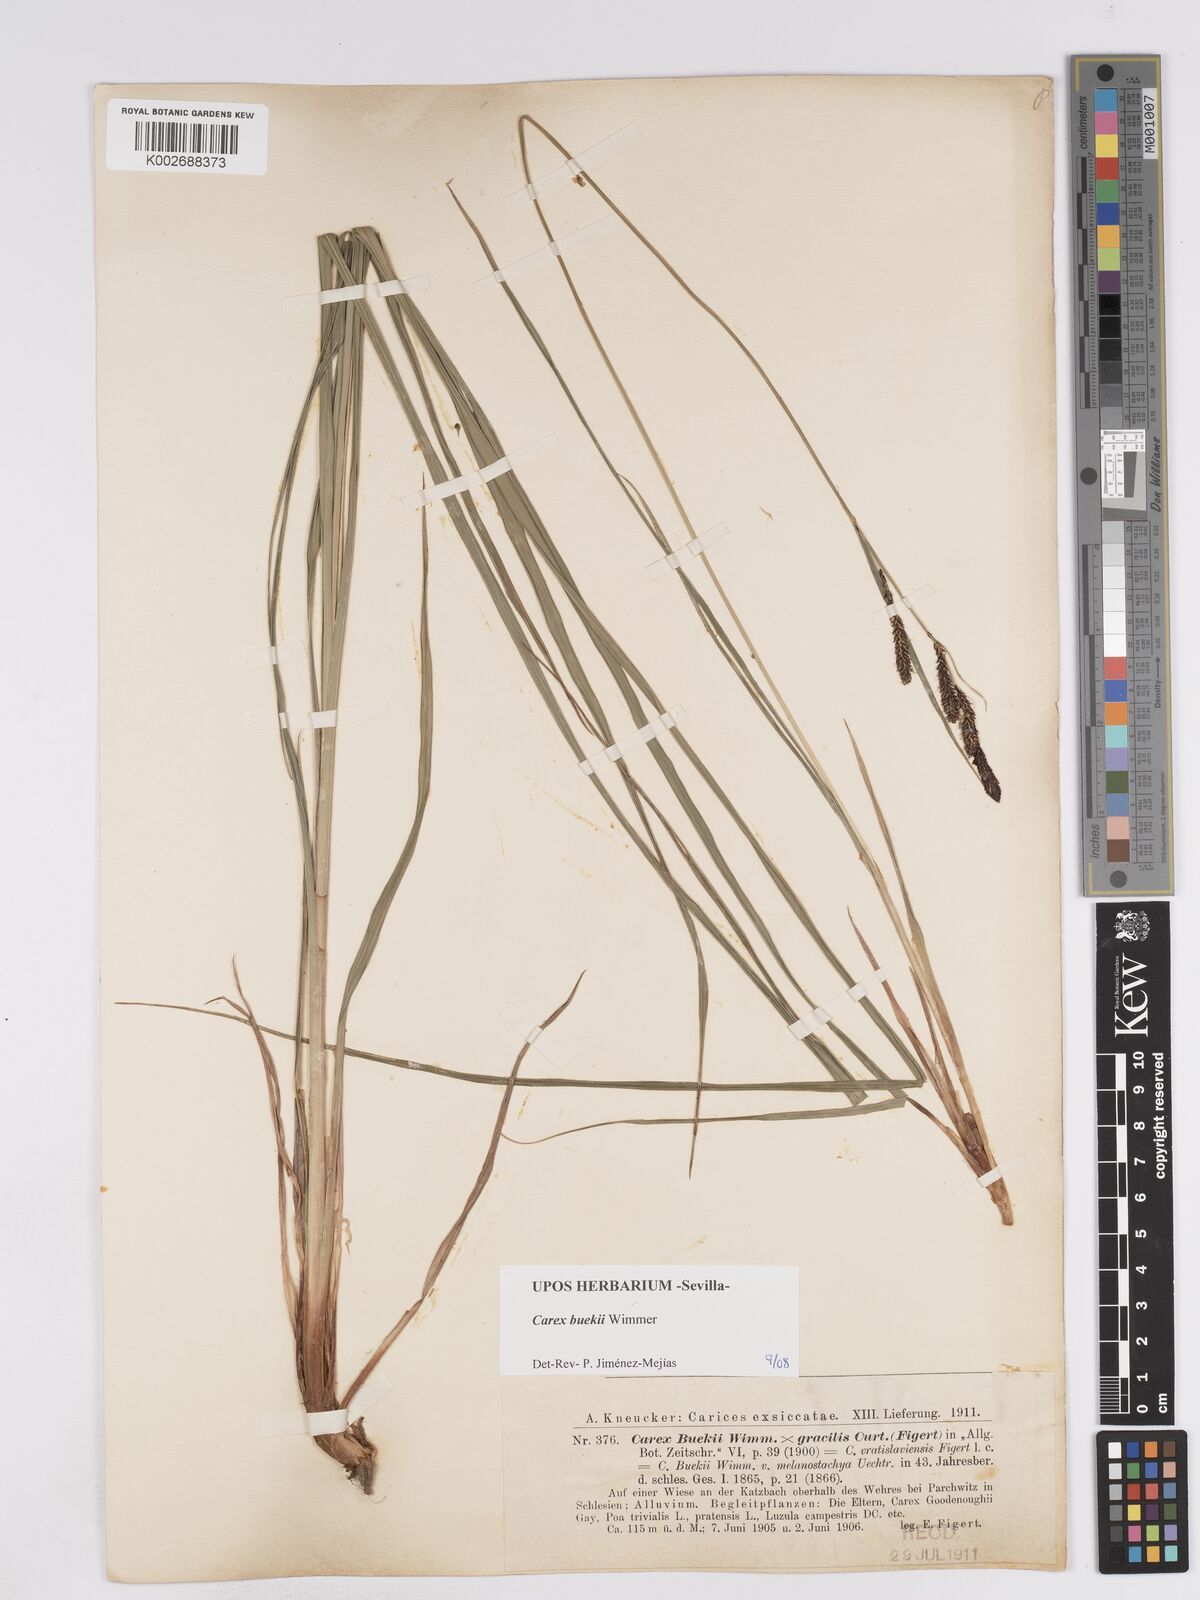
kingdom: Plantae
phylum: Tracheophyta
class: Liliopsida
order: Poales
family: Cyperaceae
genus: Carex
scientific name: Carex buekii
